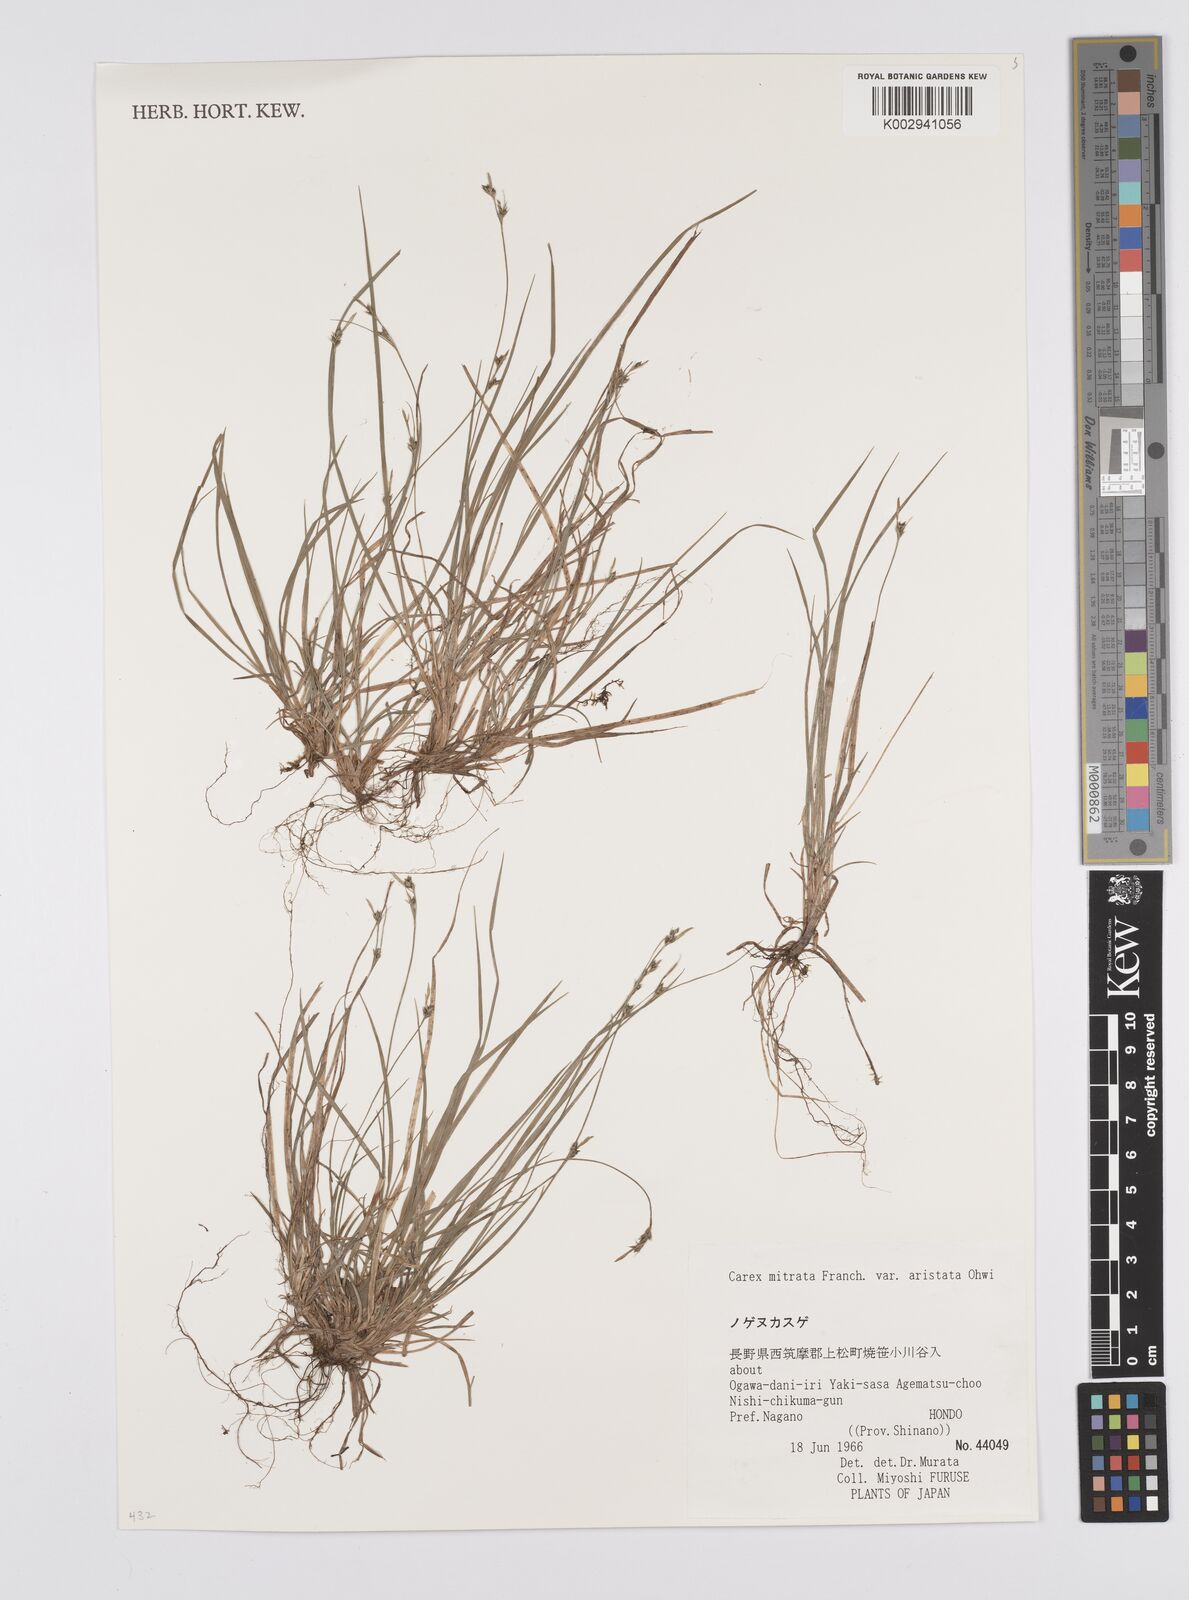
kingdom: Plantae
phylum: Tracheophyta
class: Liliopsida
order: Poales
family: Cyperaceae
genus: Carex
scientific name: Carex mitrata
